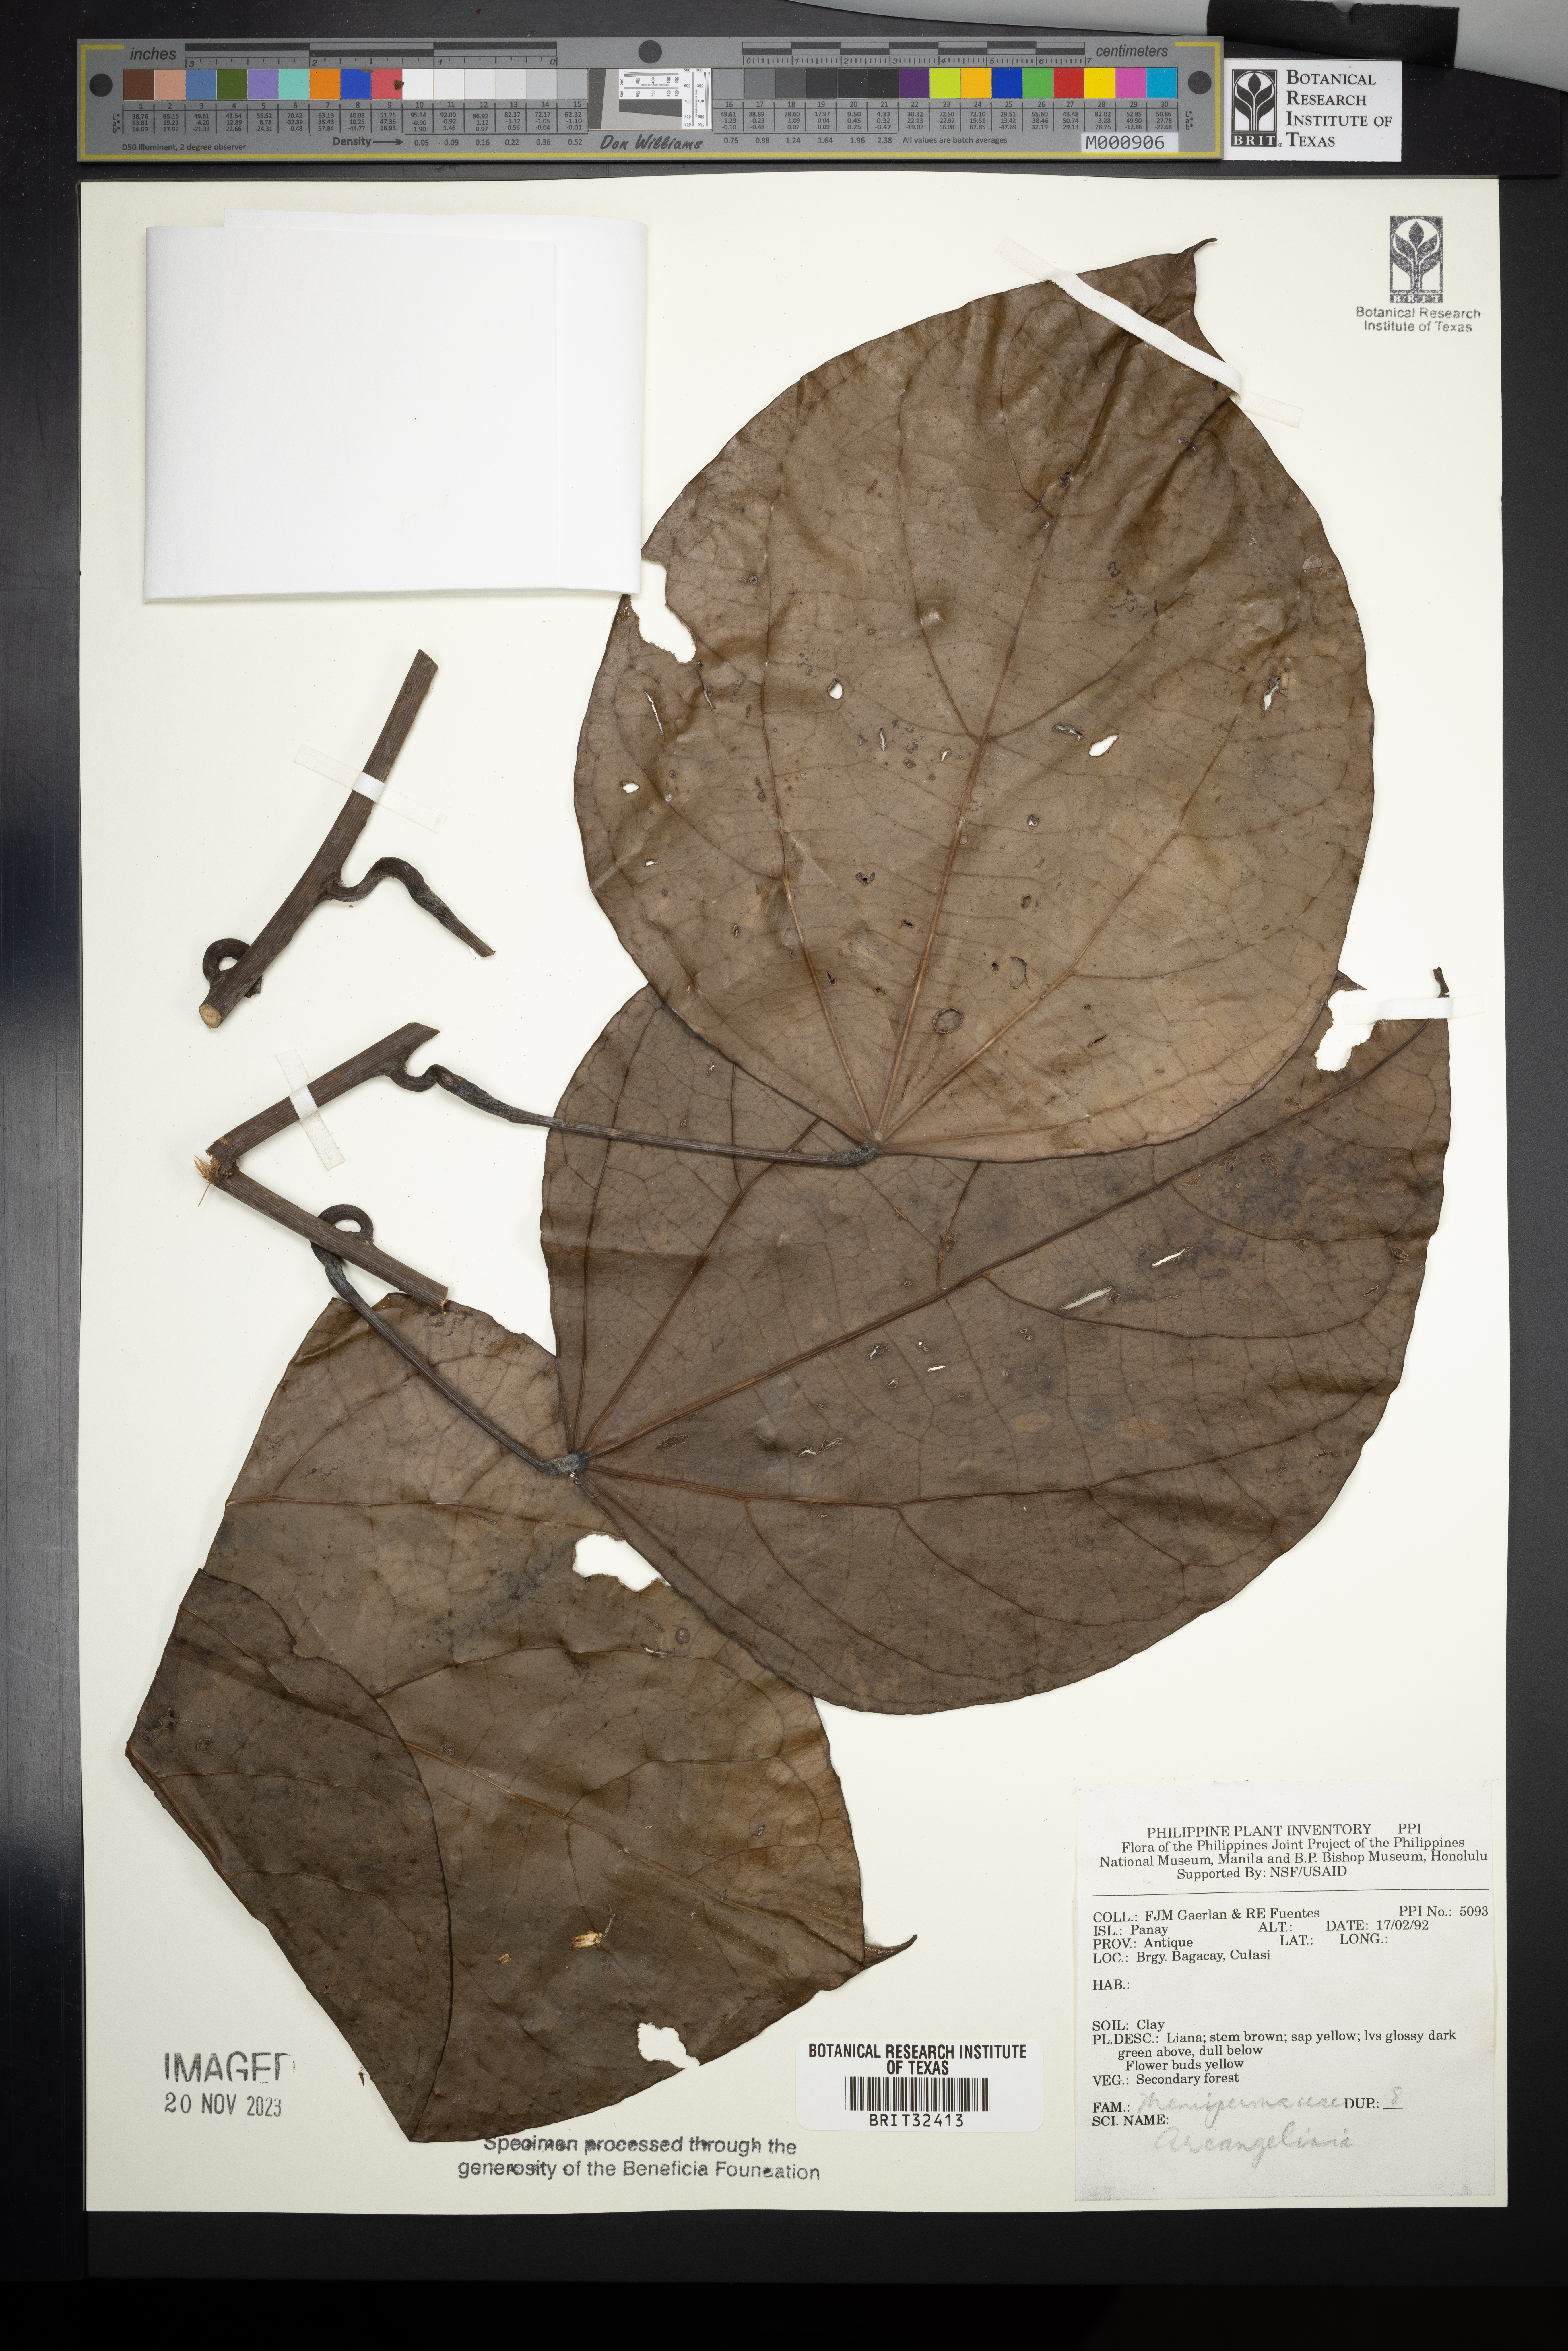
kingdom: Plantae
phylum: Tracheophyta
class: Magnoliopsida
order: Ranunculales
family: Menispermaceae
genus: Arcangelisia
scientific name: Arcangelisia
